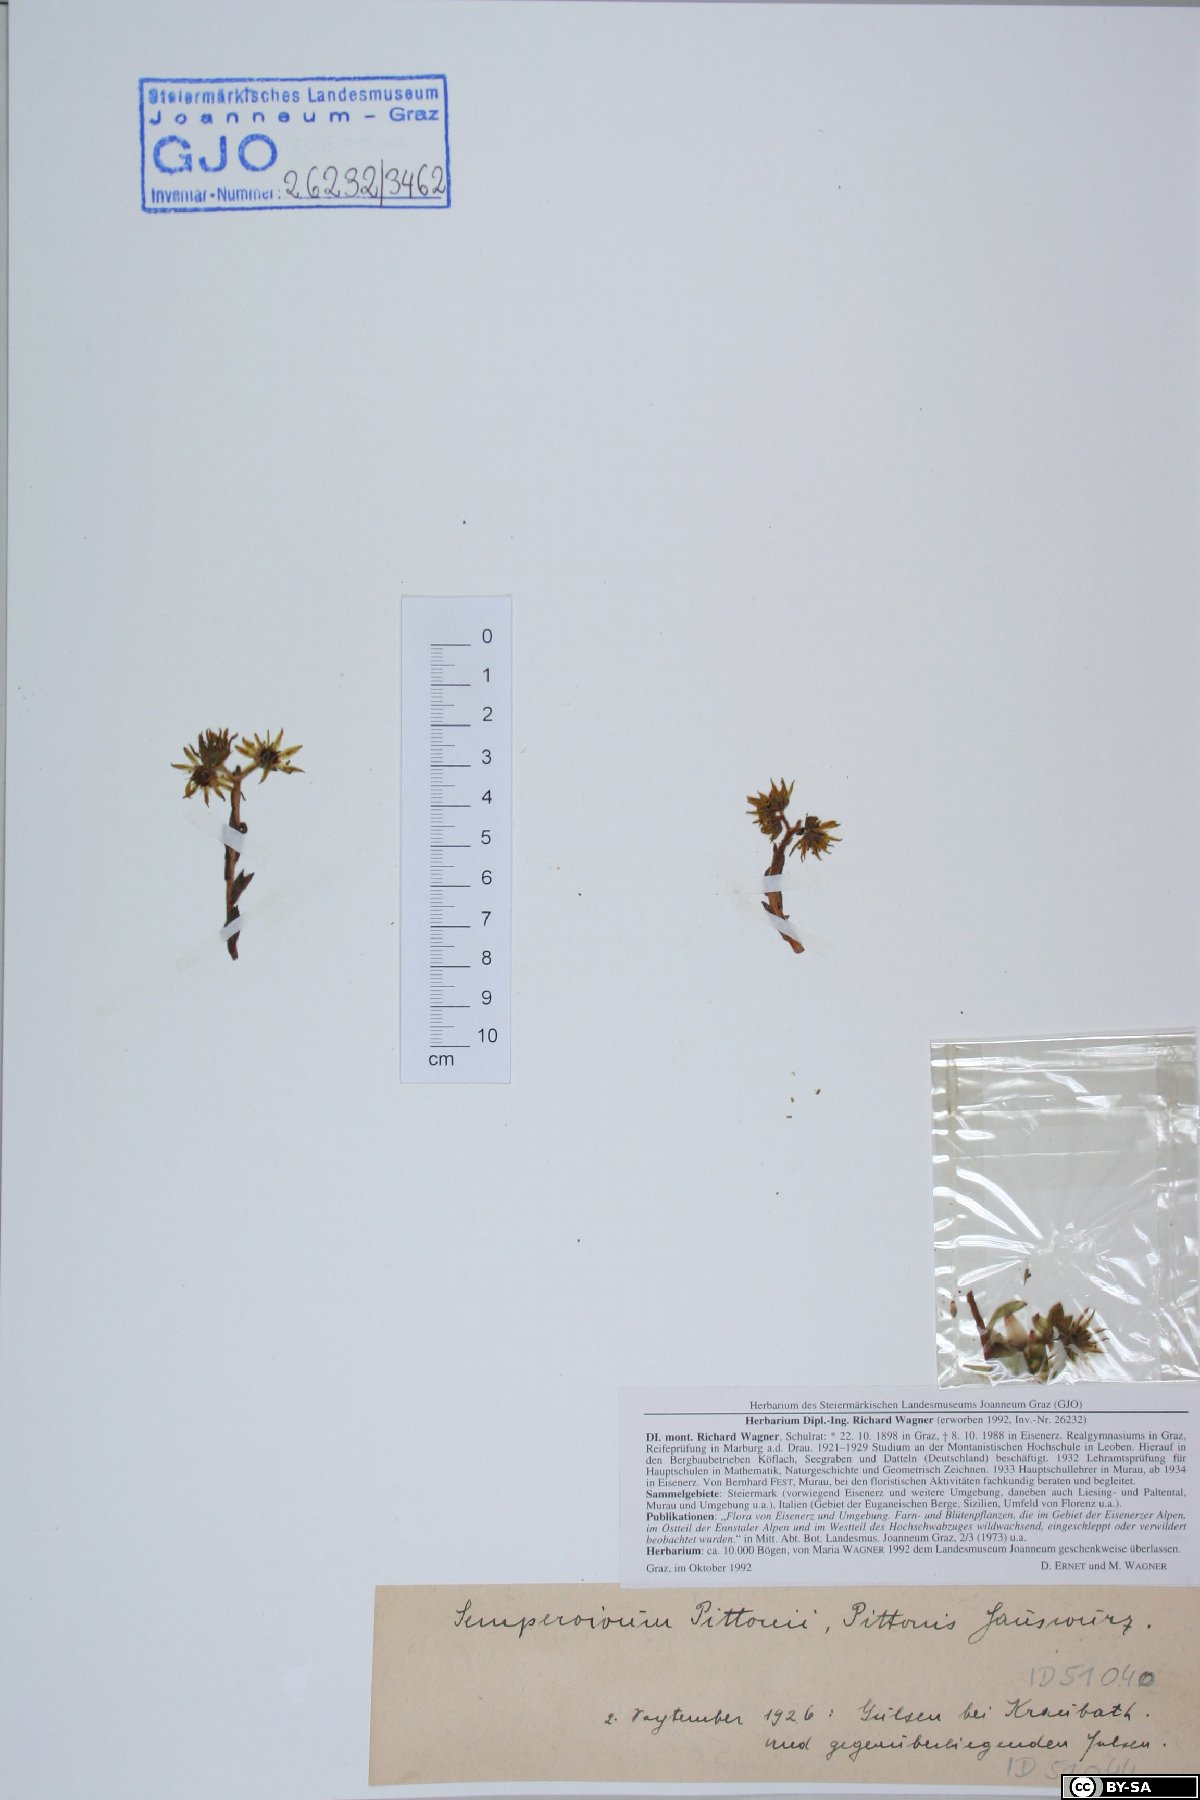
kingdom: Plantae
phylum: Tracheophyta
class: Magnoliopsida
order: Saxifragales
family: Crassulaceae
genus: Sempervivum
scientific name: Sempervivum pittonii
